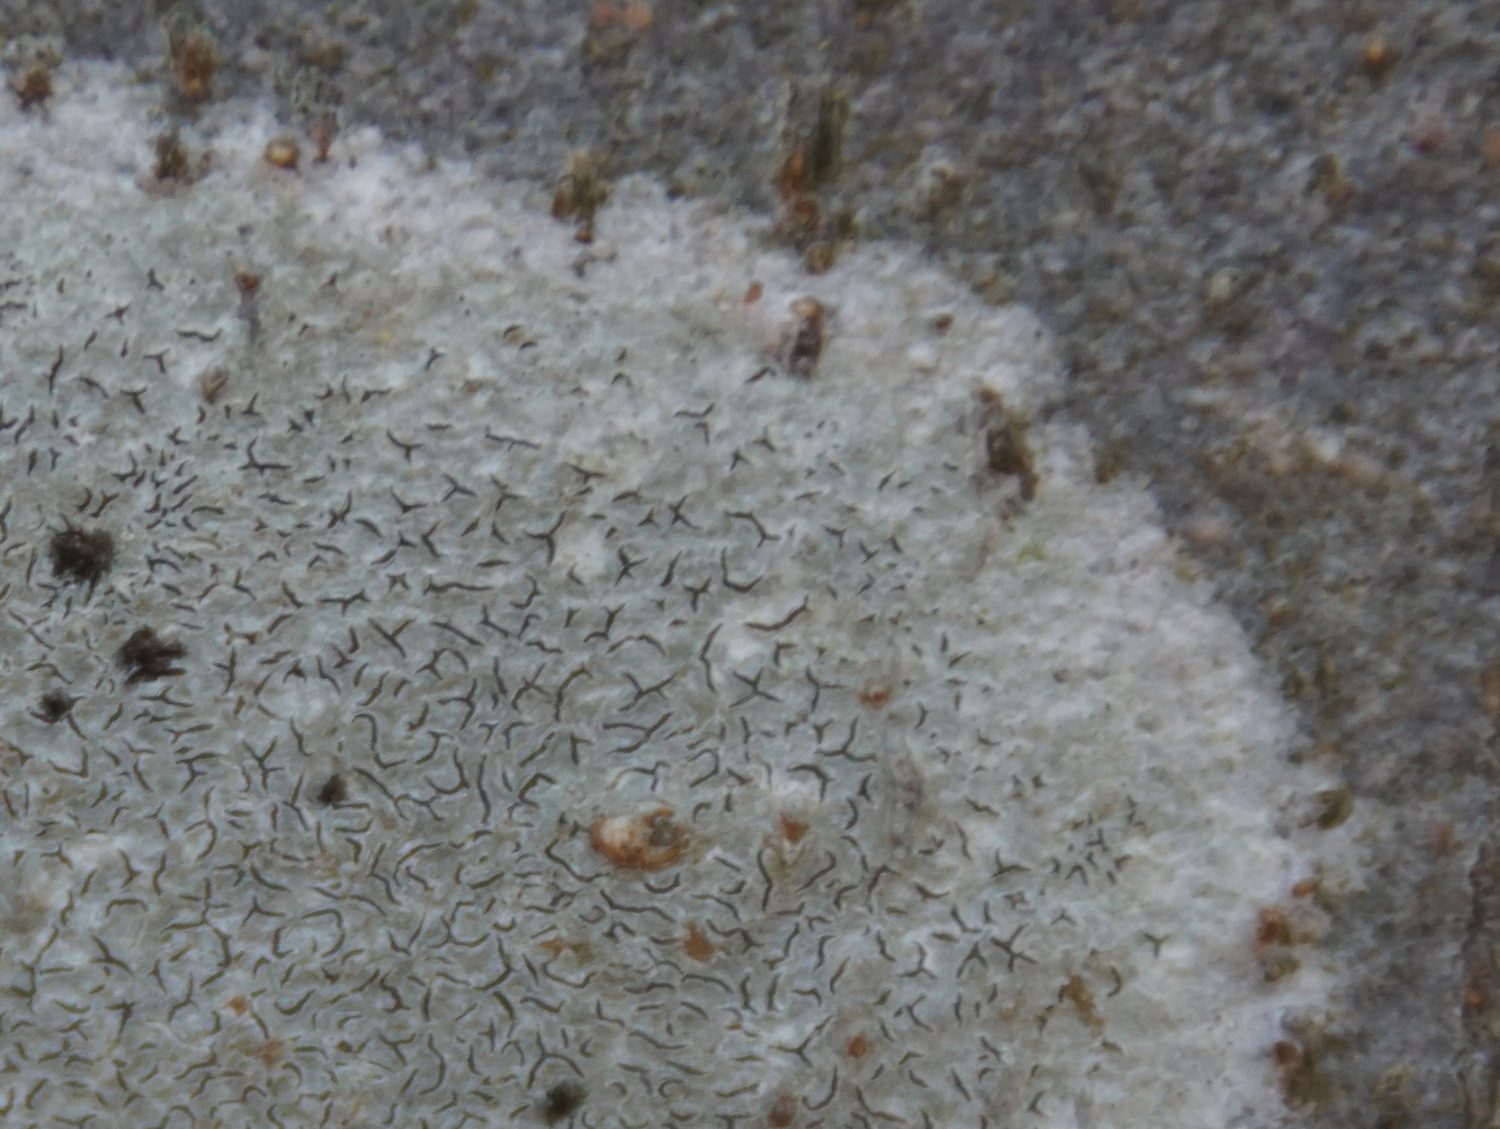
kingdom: Fungi
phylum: Ascomycota
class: Lecanoromycetes
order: Ostropales
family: Graphidaceae
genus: Graphis
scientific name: Graphis scripta
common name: almindelig skriftlav
